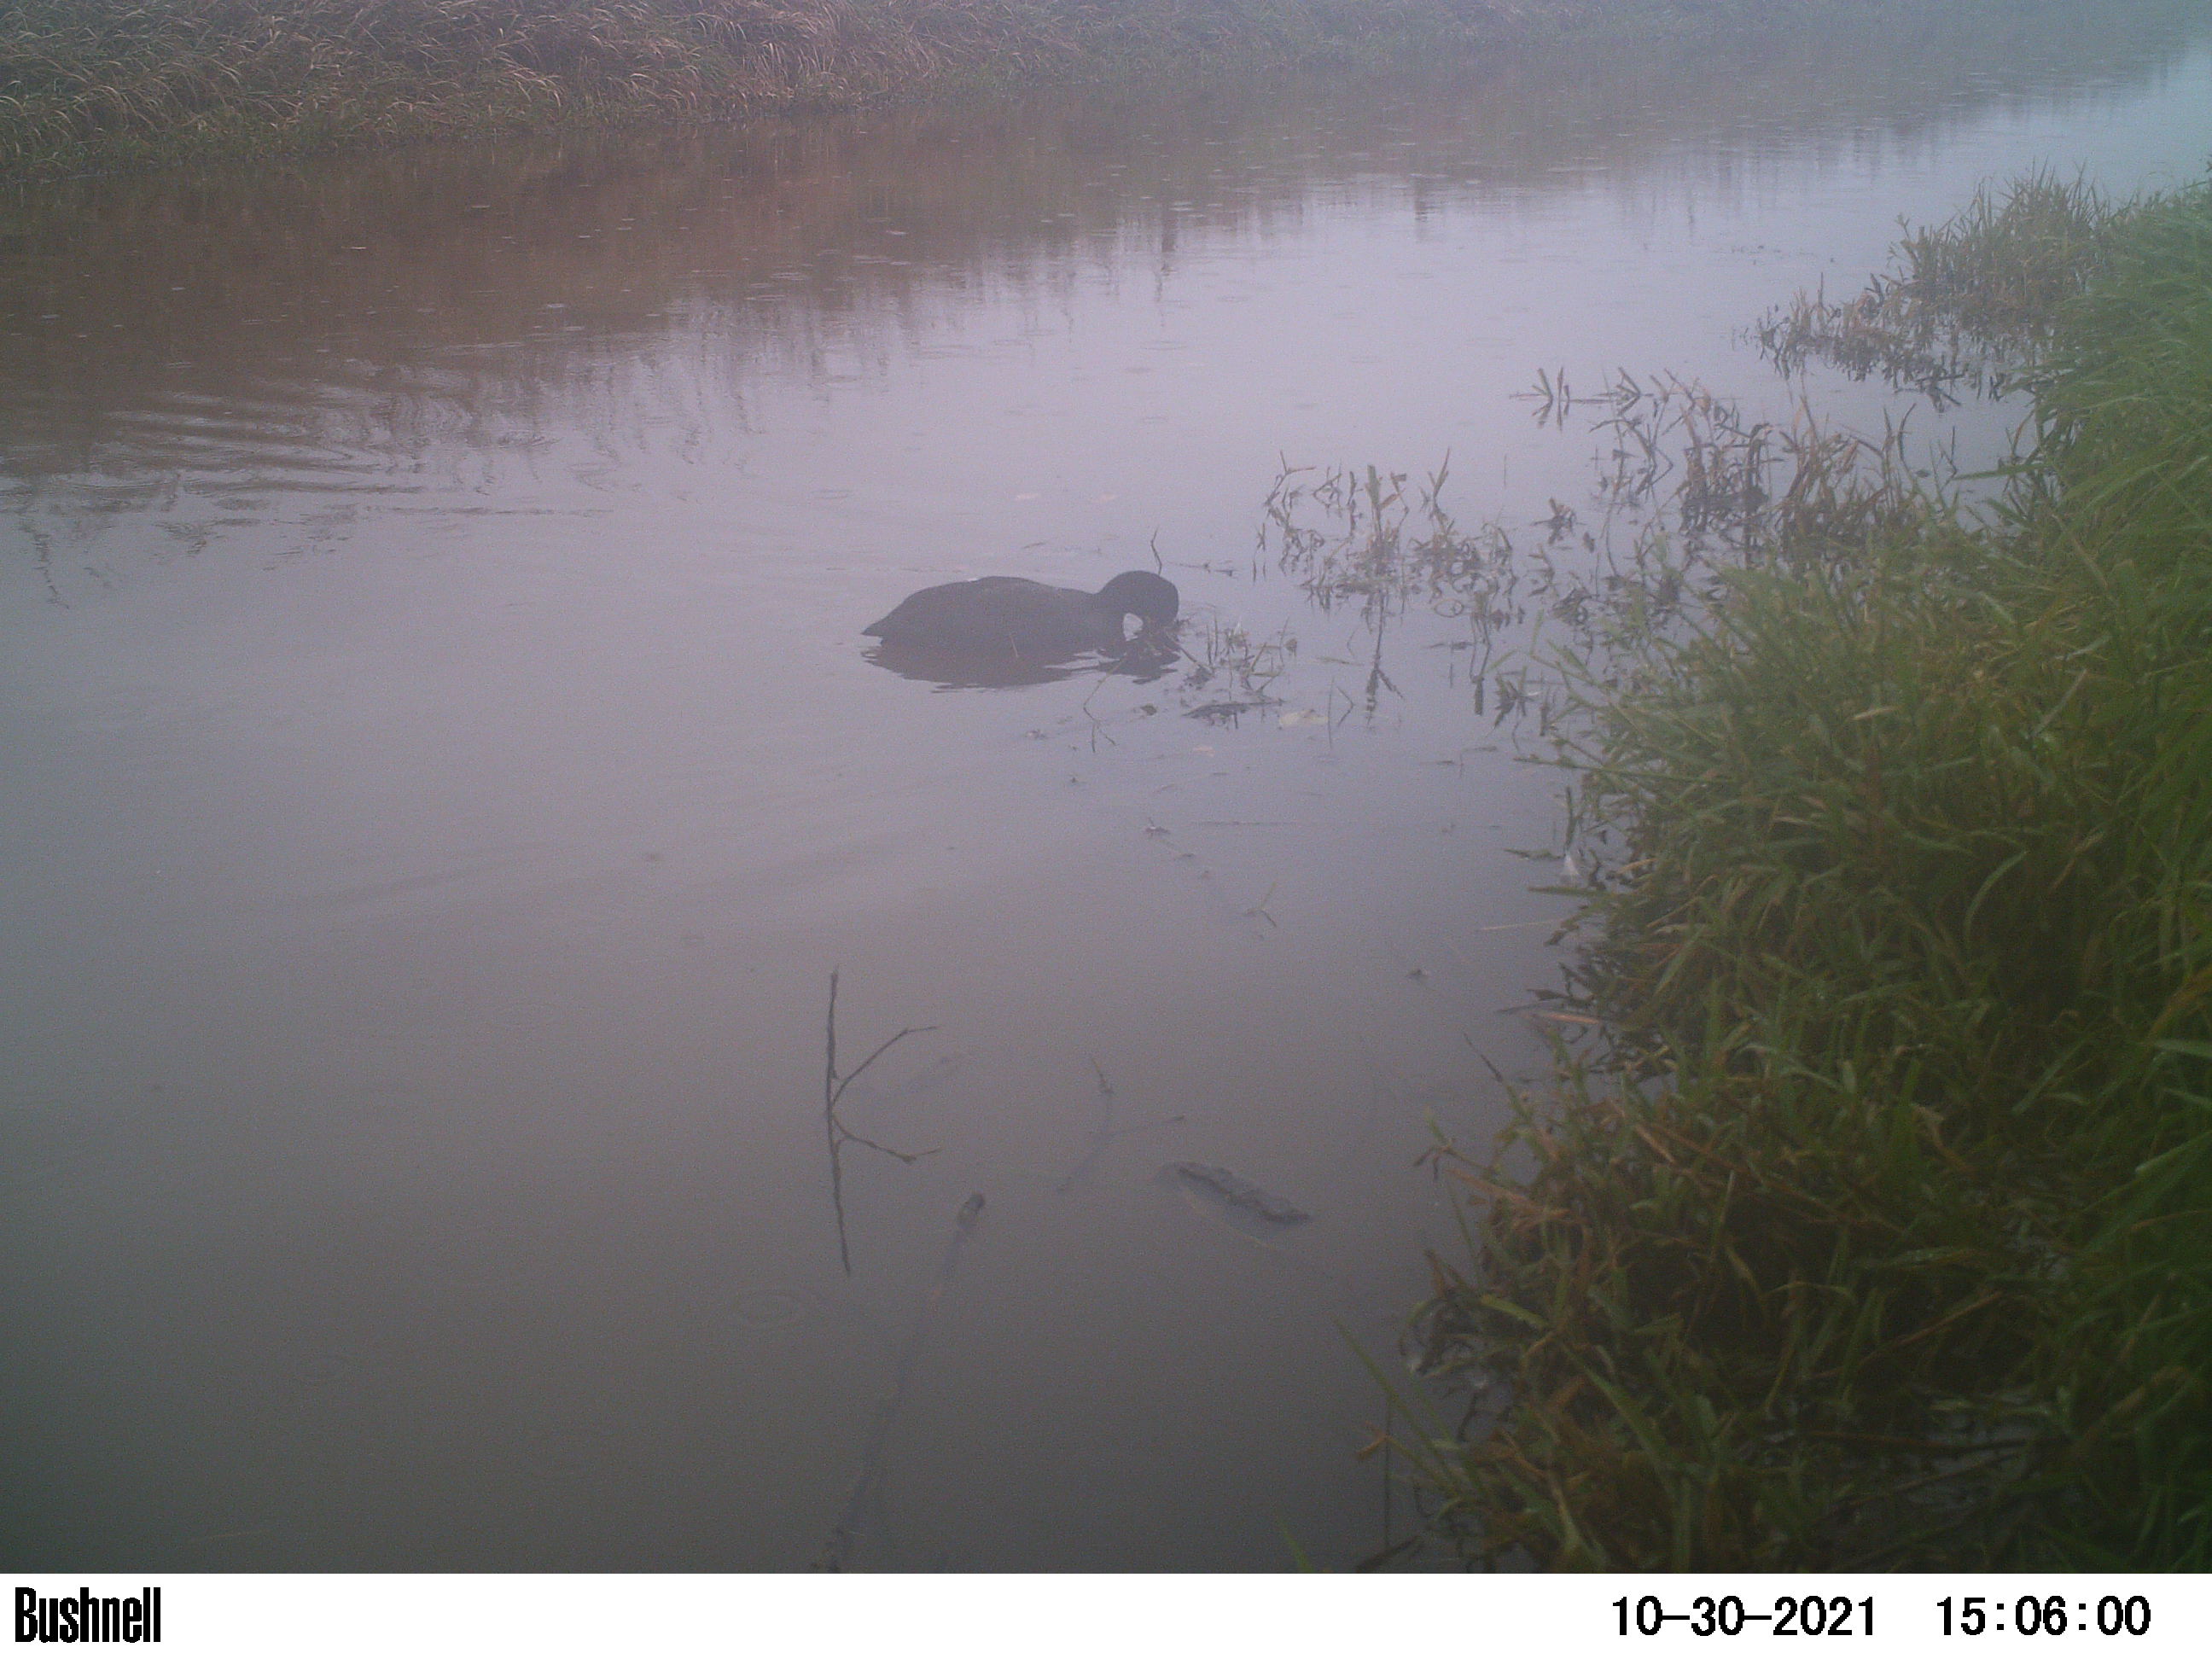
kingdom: Animalia
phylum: Chordata
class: Aves
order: Gruiformes
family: Rallidae
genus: Fulica
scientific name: Fulica atra
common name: Eurasian coot
